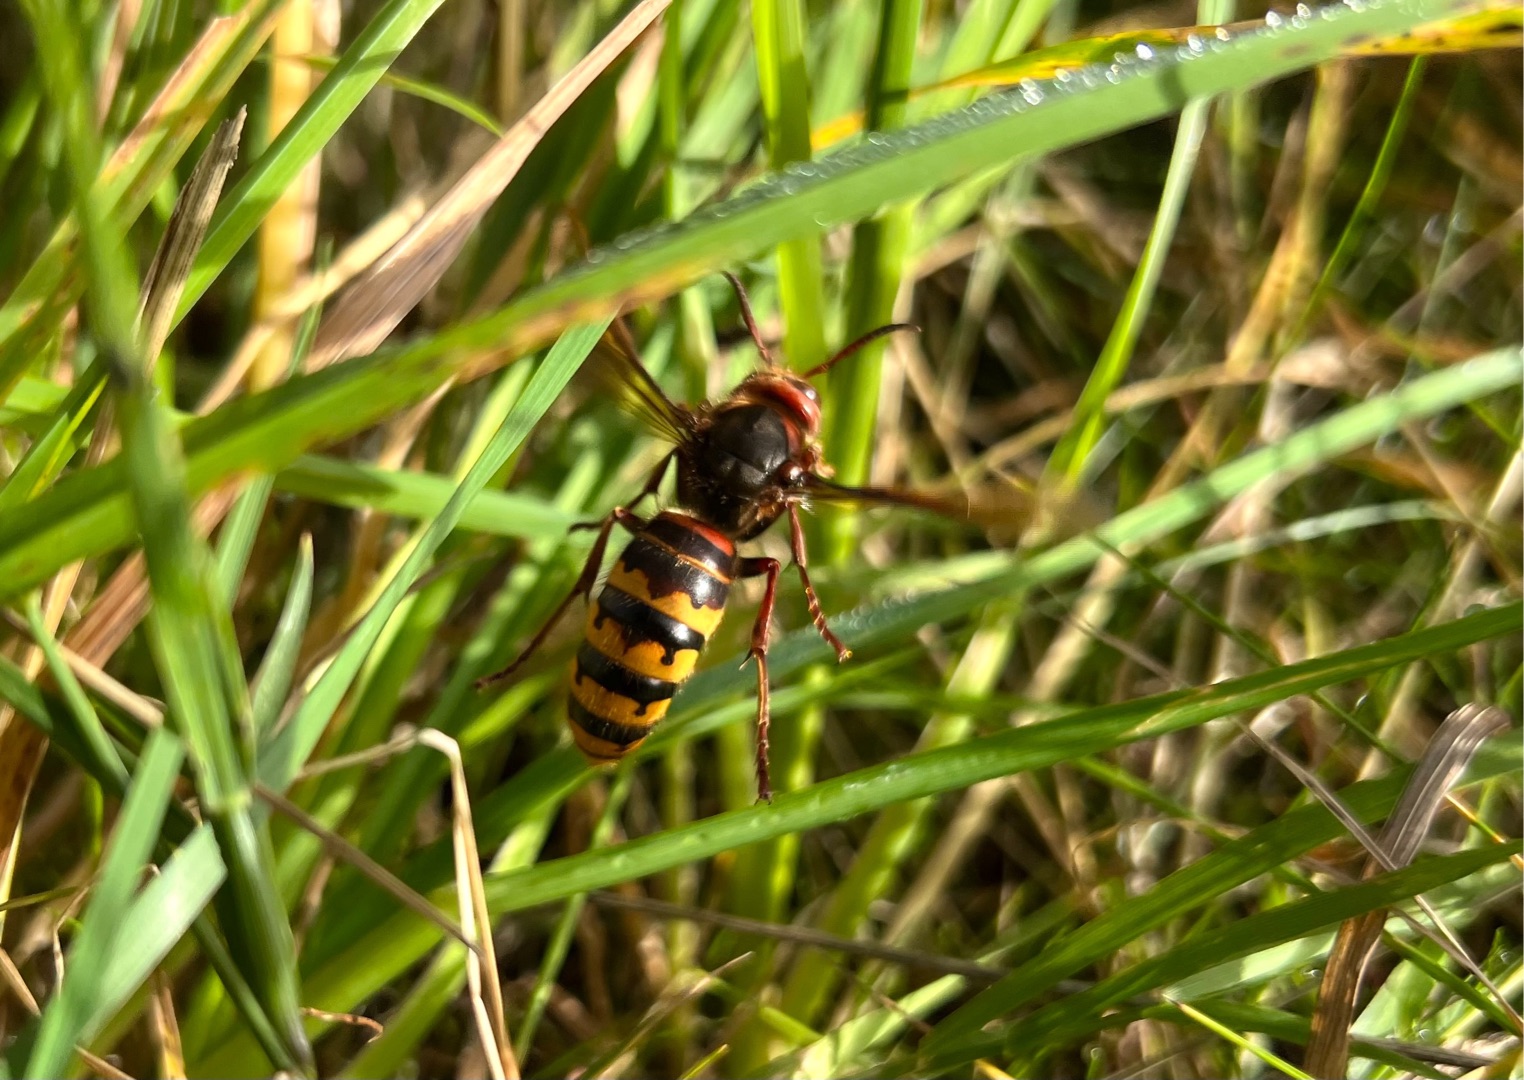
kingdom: Animalia
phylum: Arthropoda
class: Insecta
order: Hymenoptera
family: Vespidae
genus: Vespa
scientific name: Vespa crabro
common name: Stor gedehams
